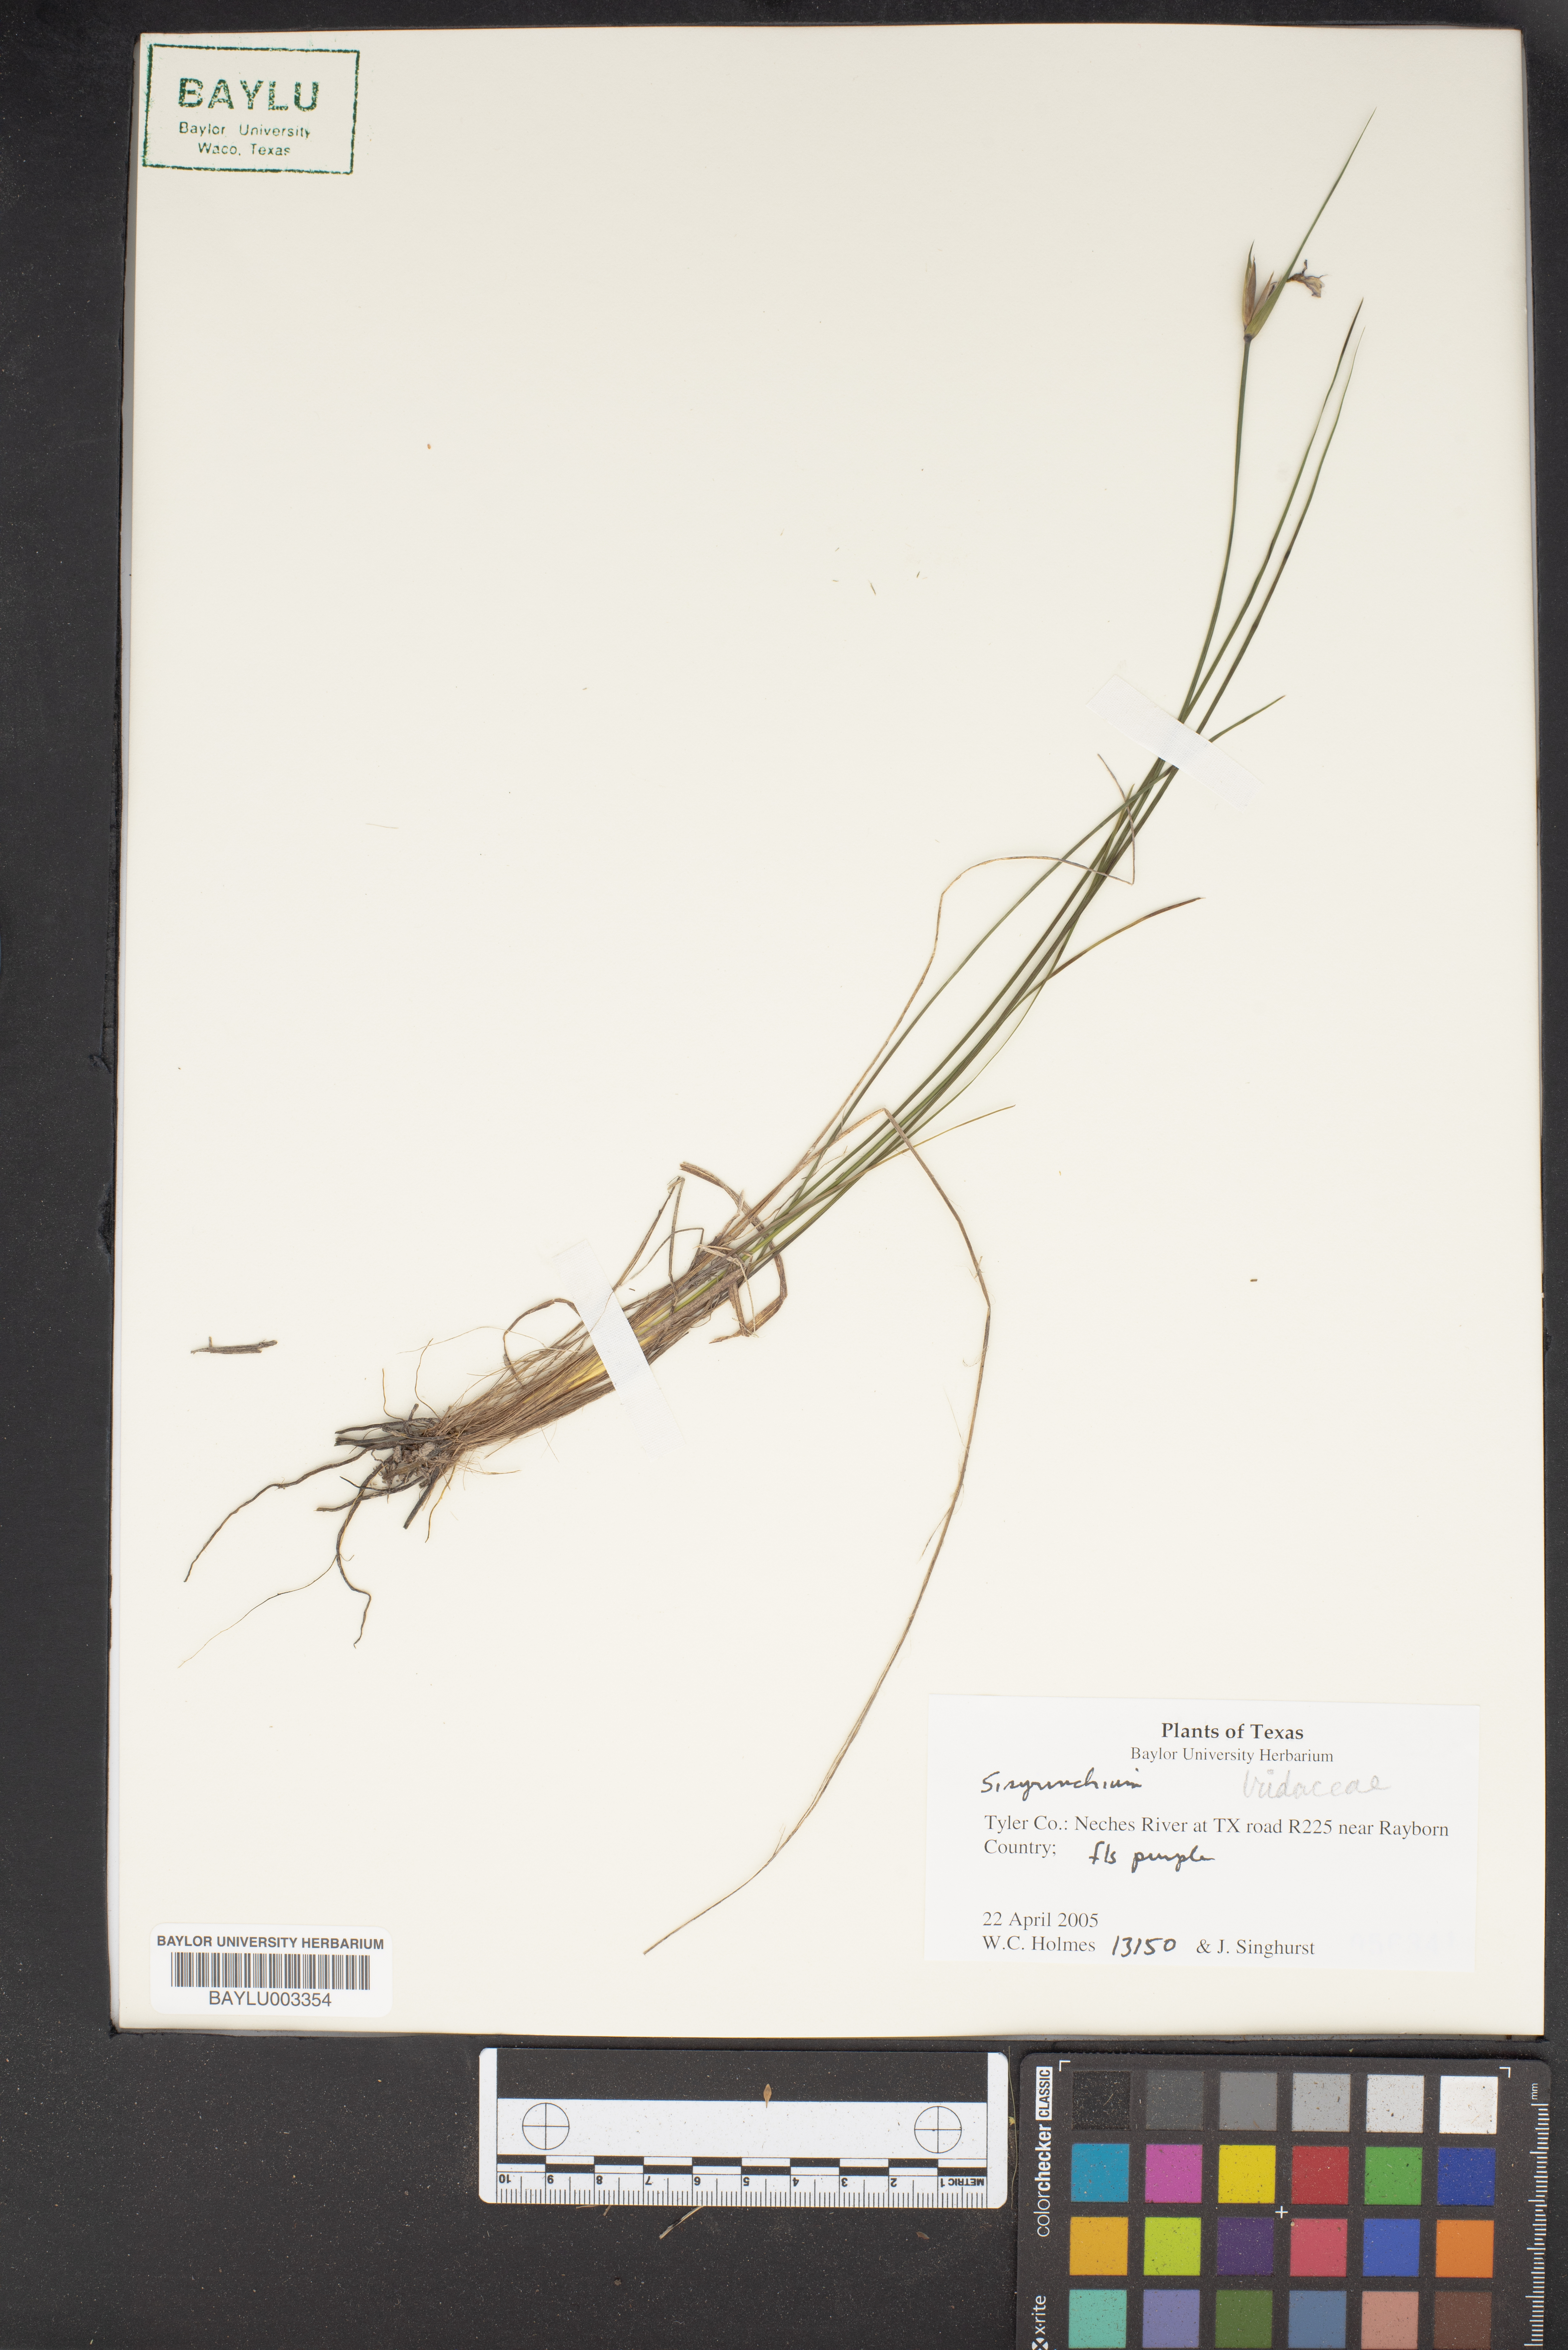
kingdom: Plantae
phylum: Tracheophyta
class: Liliopsida
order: Asparagales
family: Iridaceae
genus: Sisyrenchium
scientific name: Sisyrenchium
